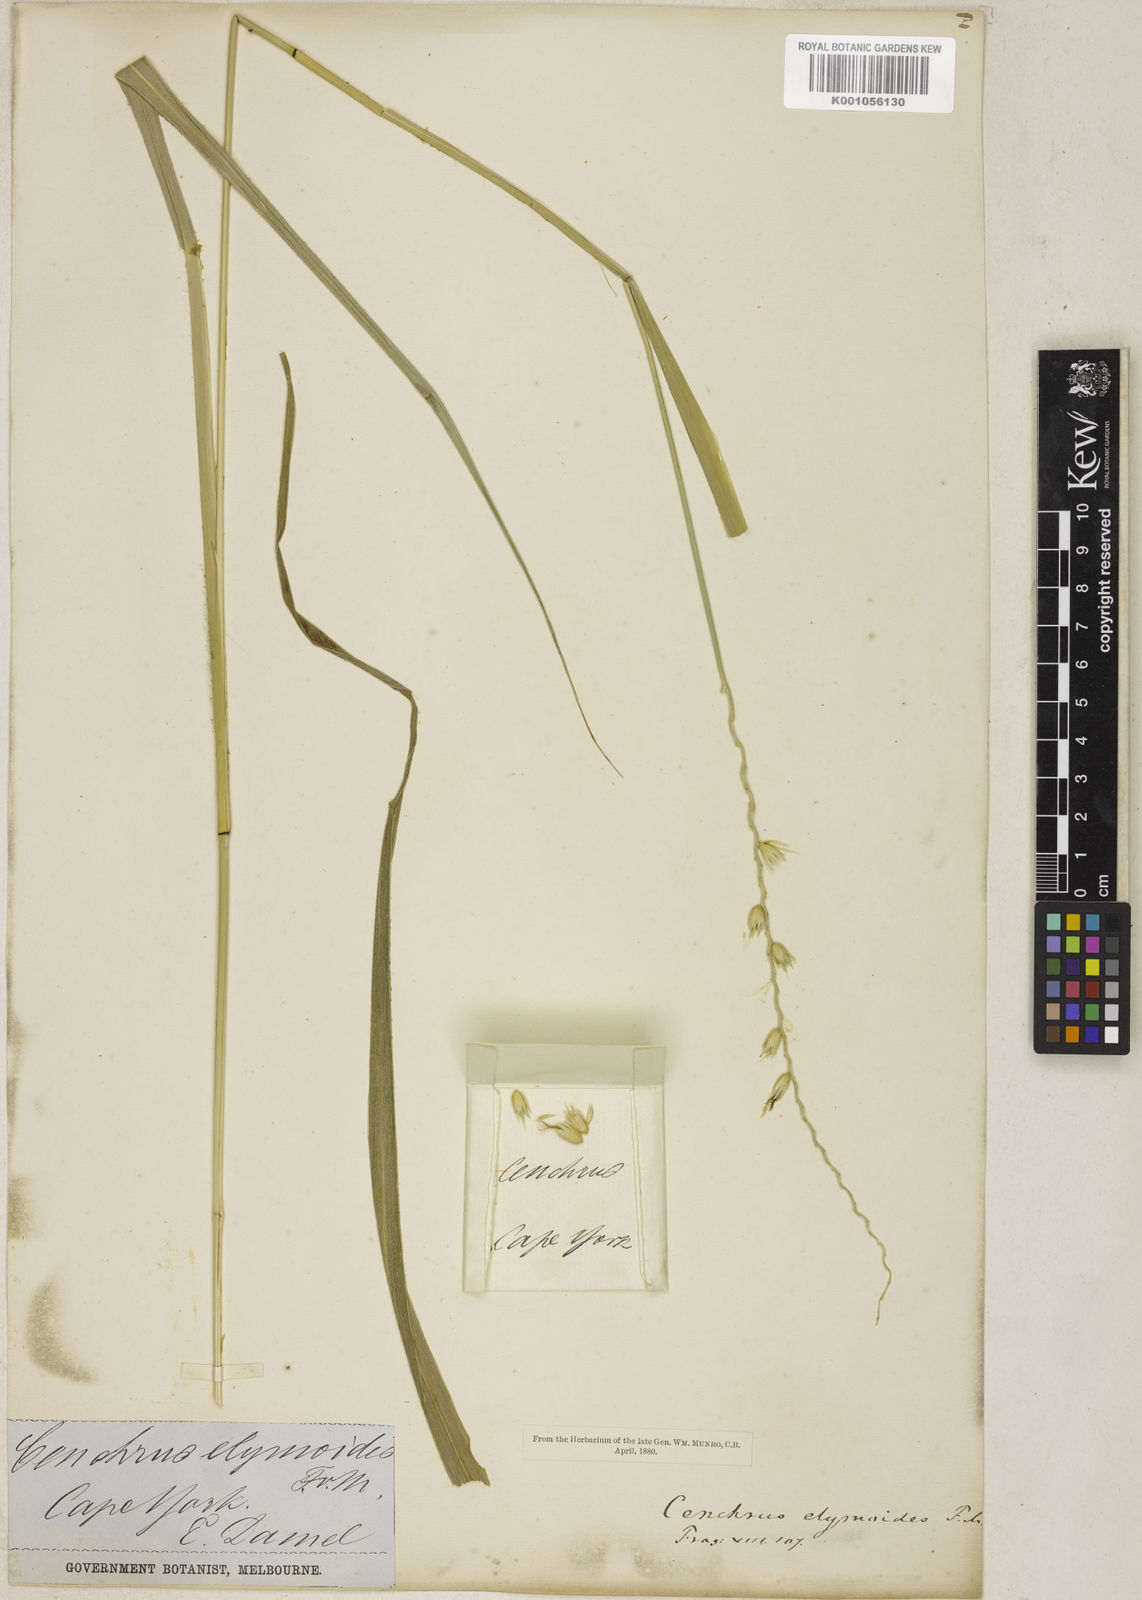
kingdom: Plantae
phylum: Tracheophyta
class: Liliopsida
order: Poales
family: Poaceae
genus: Cenchrus
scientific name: Cenchrus elymoides
